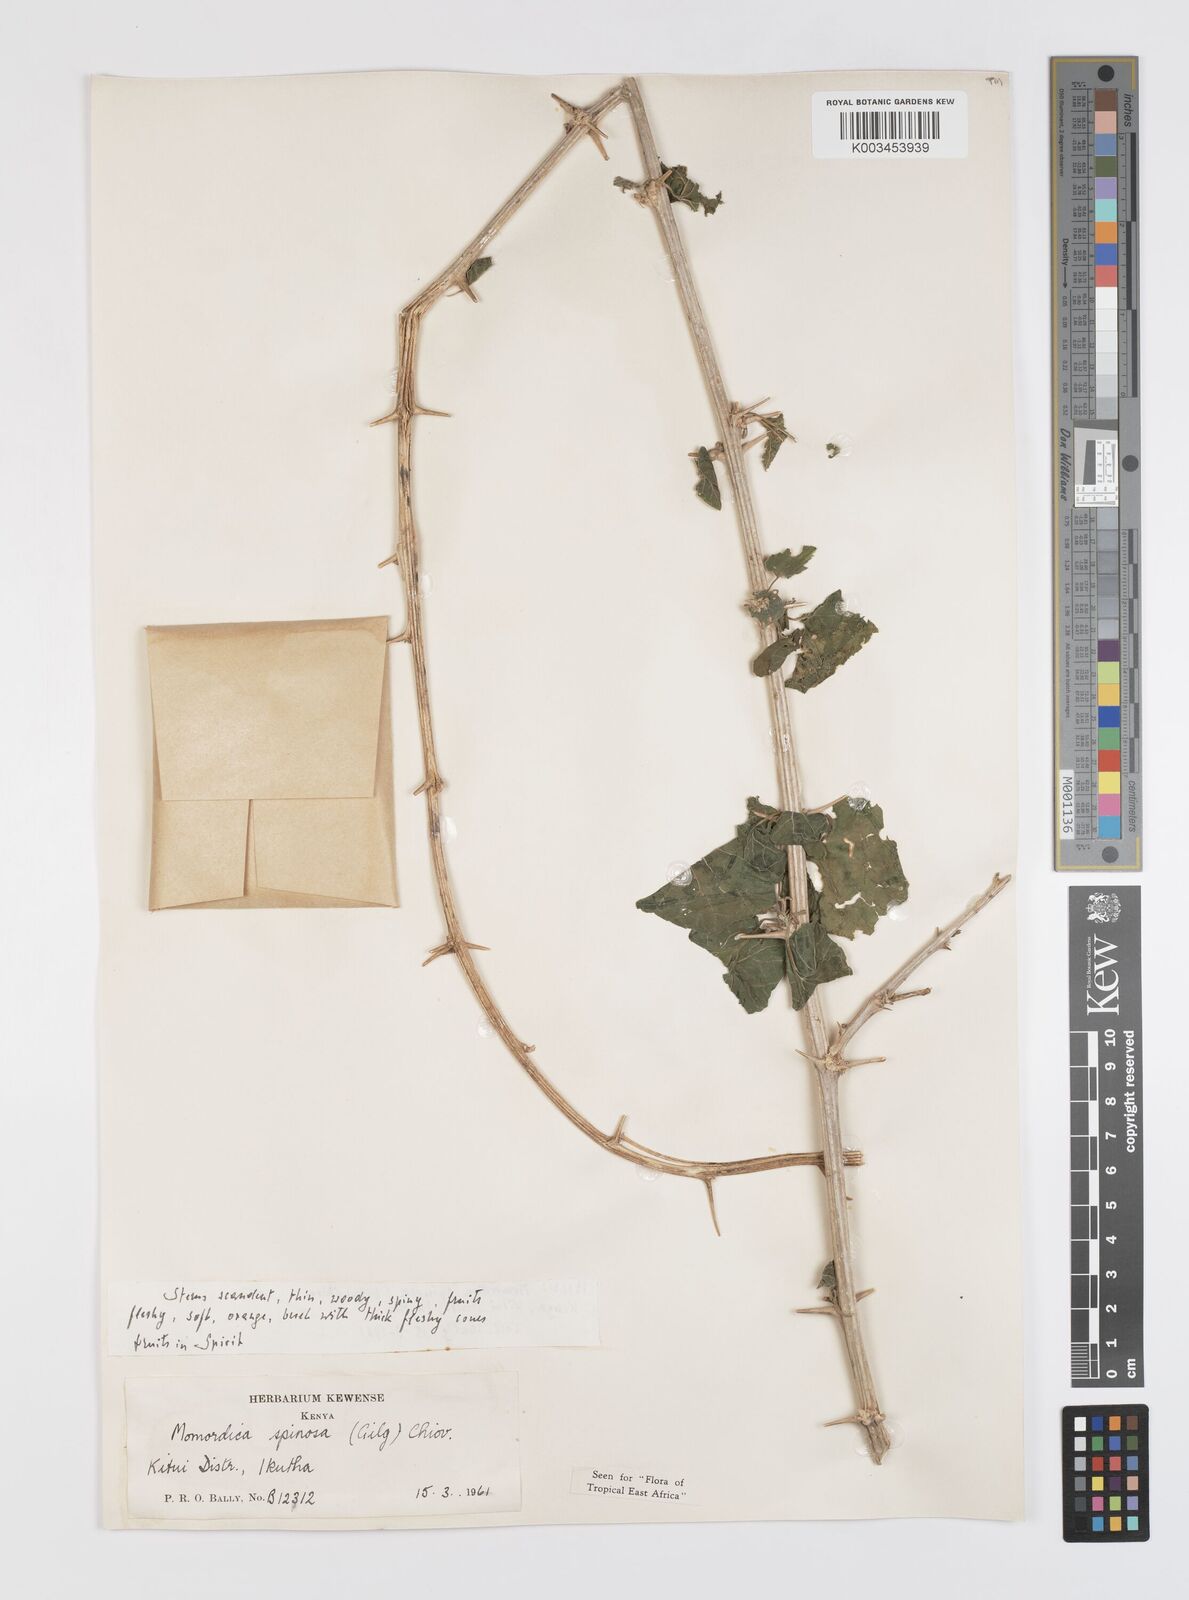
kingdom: Plantae
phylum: Tracheophyta
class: Magnoliopsida
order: Cucurbitales
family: Cucurbitaceae
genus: Momordica
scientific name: Momordica spinosa
